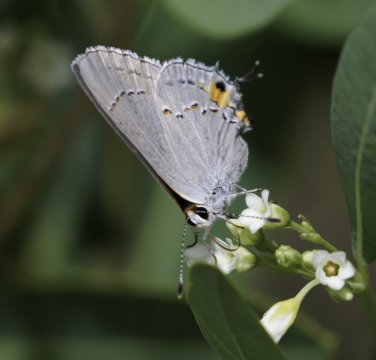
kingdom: Animalia
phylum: Arthropoda
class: Insecta
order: Lepidoptera
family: Lycaenidae
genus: Strymon
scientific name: Strymon melinus
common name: Gray Hairstreak
